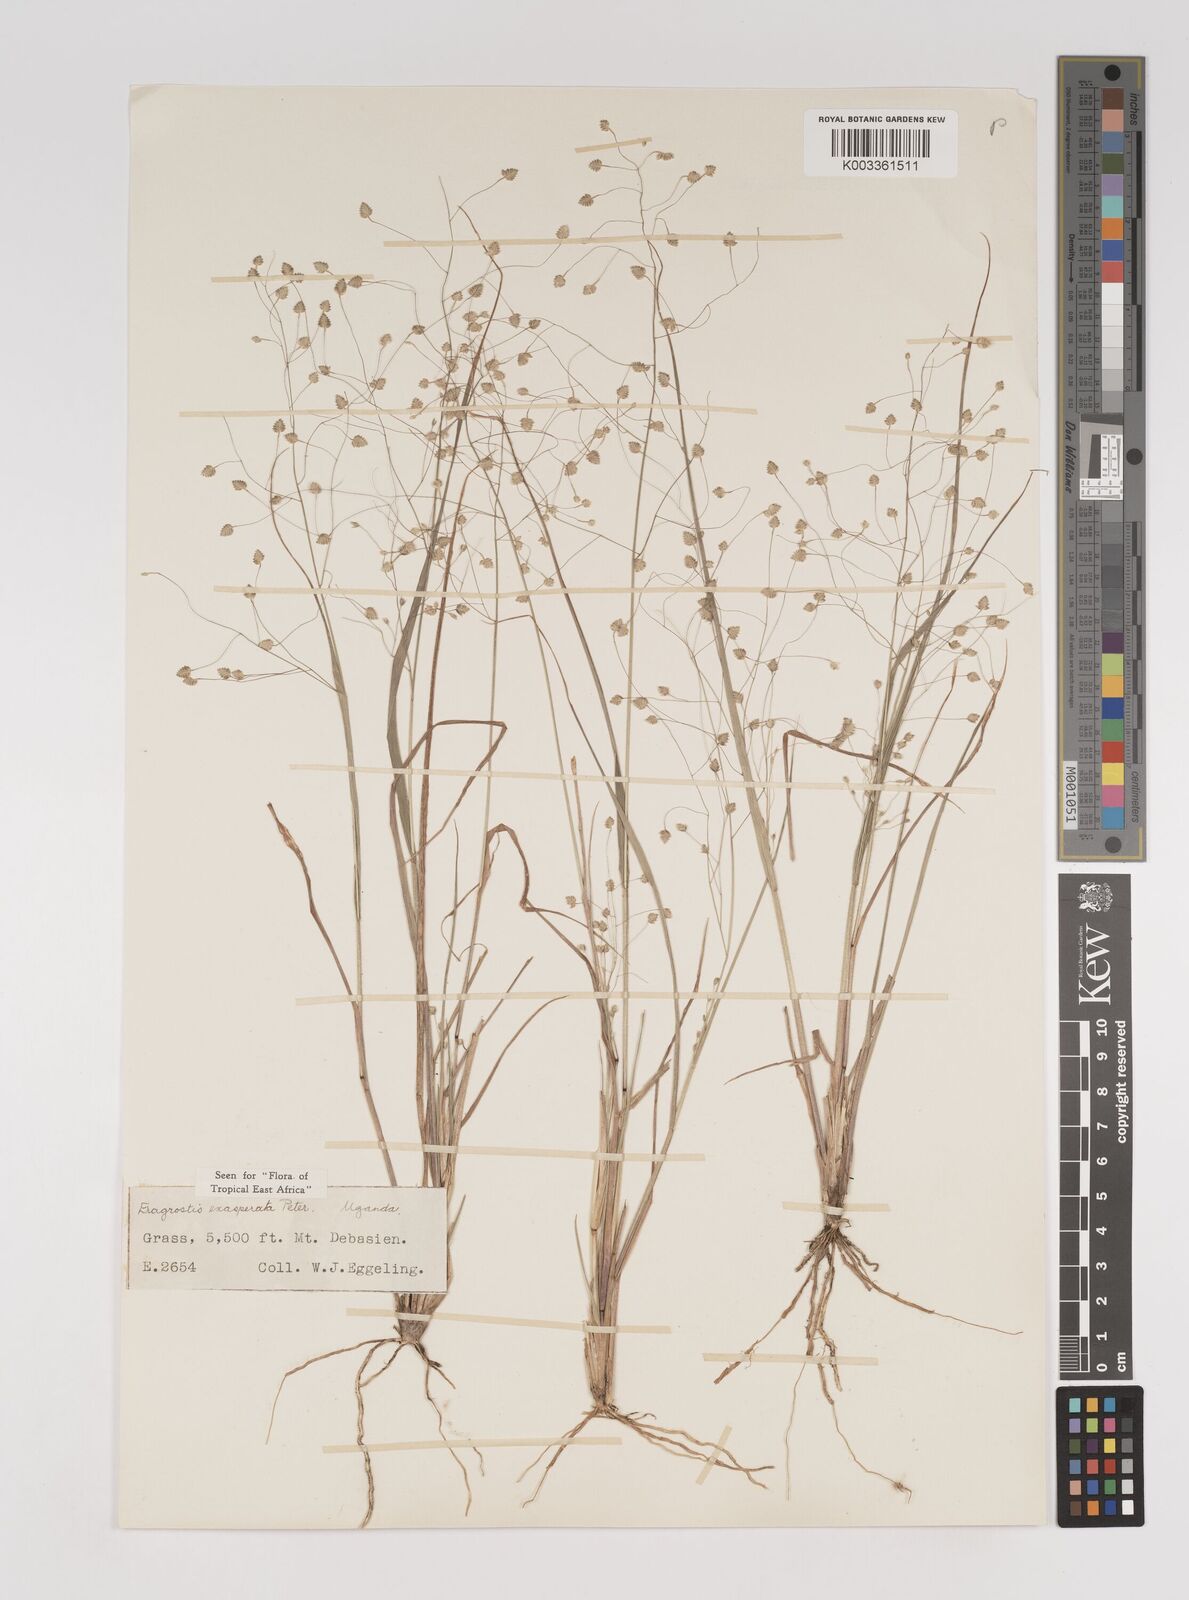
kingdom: Plantae
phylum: Tracheophyta
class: Liliopsida
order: Poales
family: Poaceae
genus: Eragrostis
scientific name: Eragrostis exasperata
